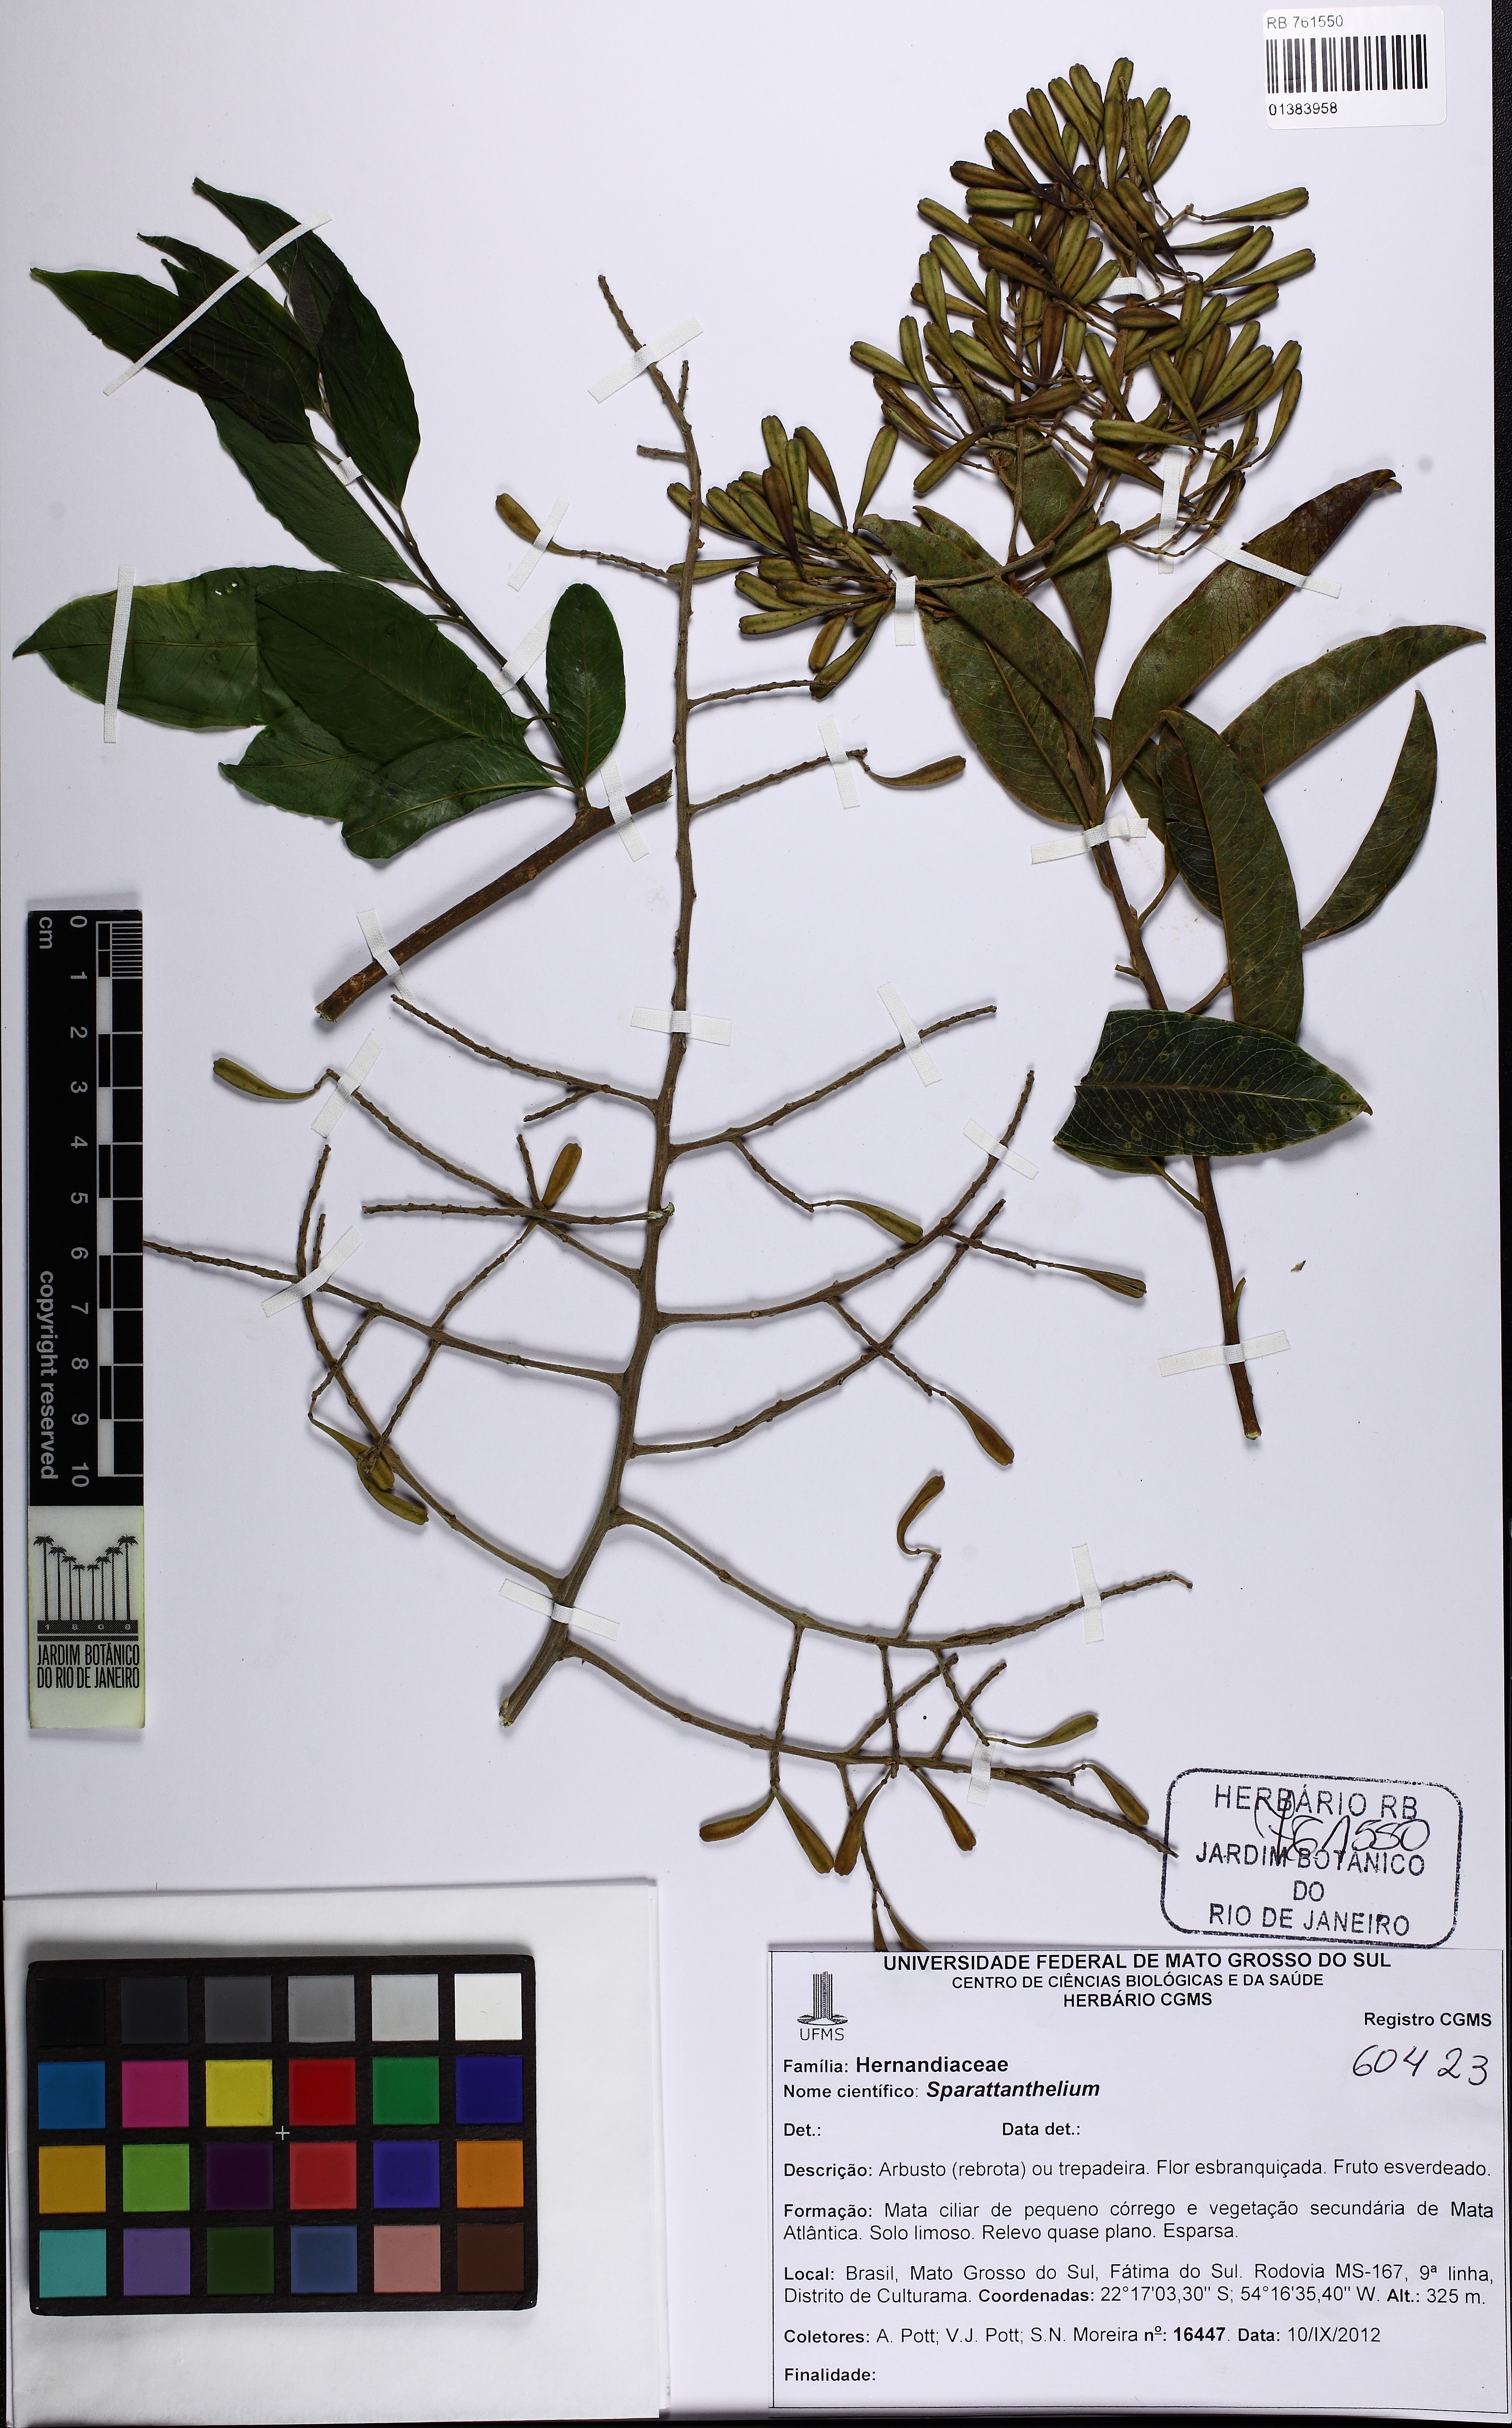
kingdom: Plantae
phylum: Tracheophyta
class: Magnoliopsida
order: Laurales
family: Hernandiaceae
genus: Sparattanthelium
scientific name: Sparattanthelium
